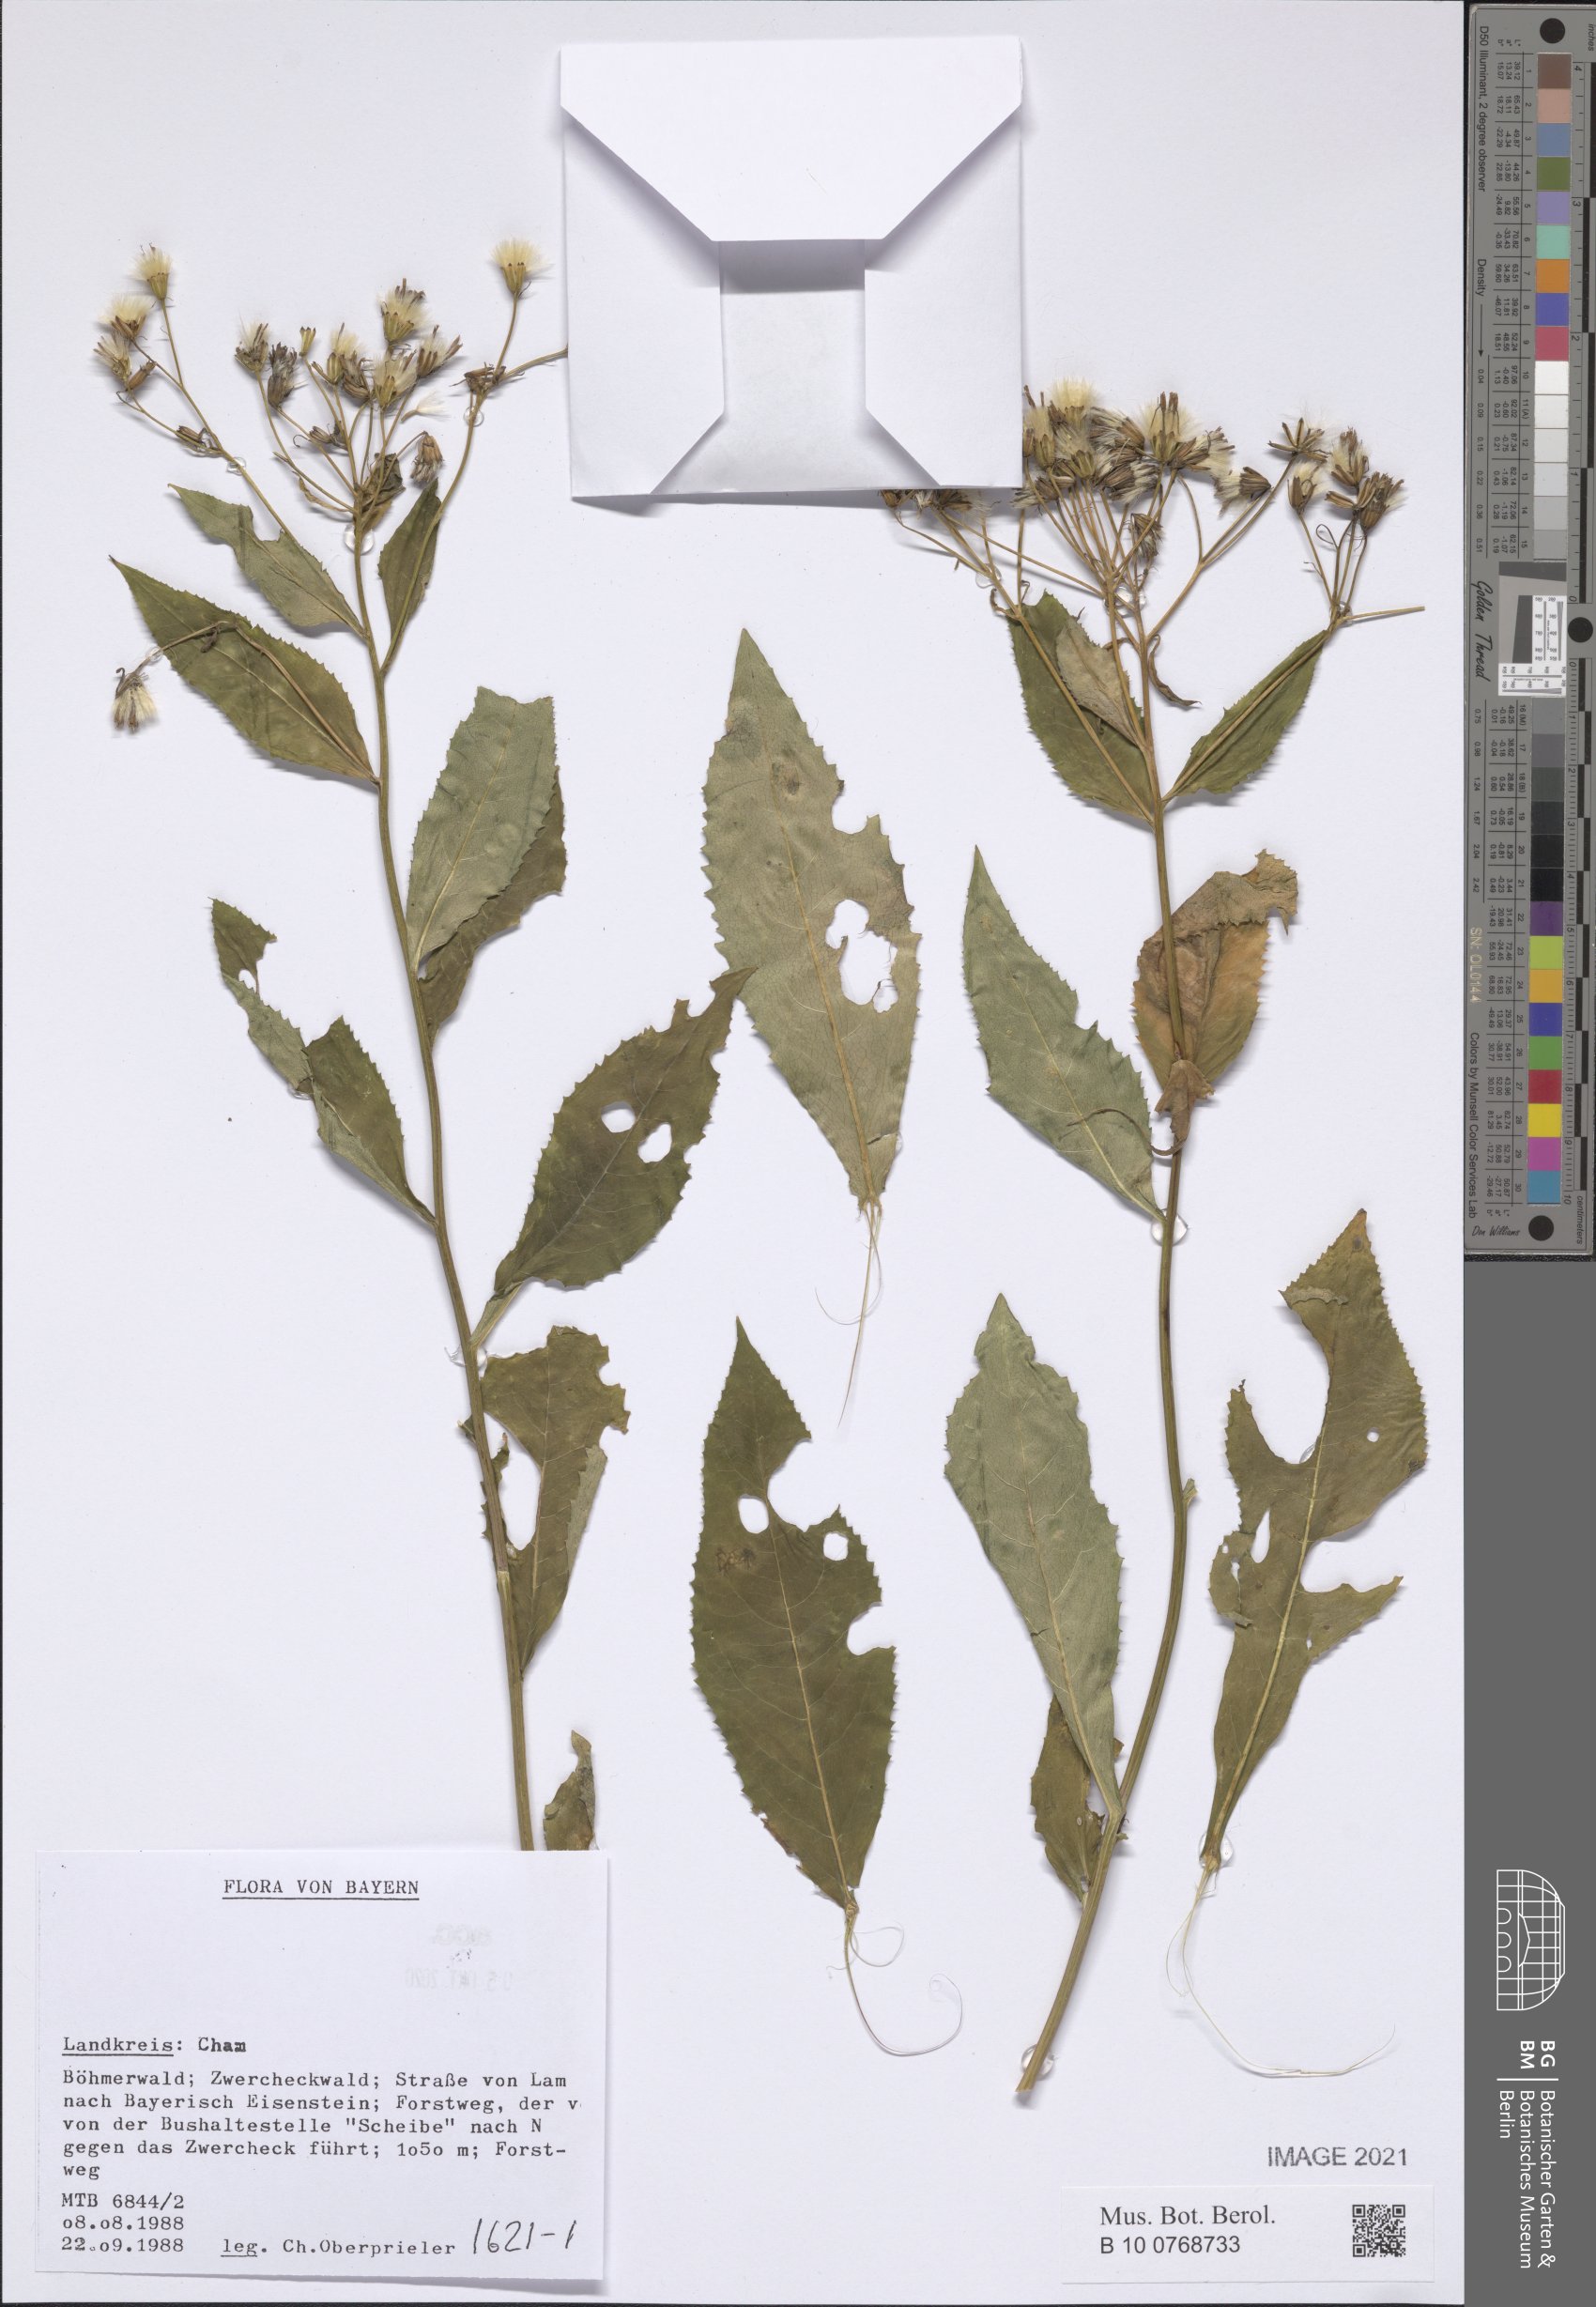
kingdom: Plantae
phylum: Tracheophyta
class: Magnoliopsida
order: Asterales
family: Asteraceae
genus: Senecio
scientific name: Senecio
